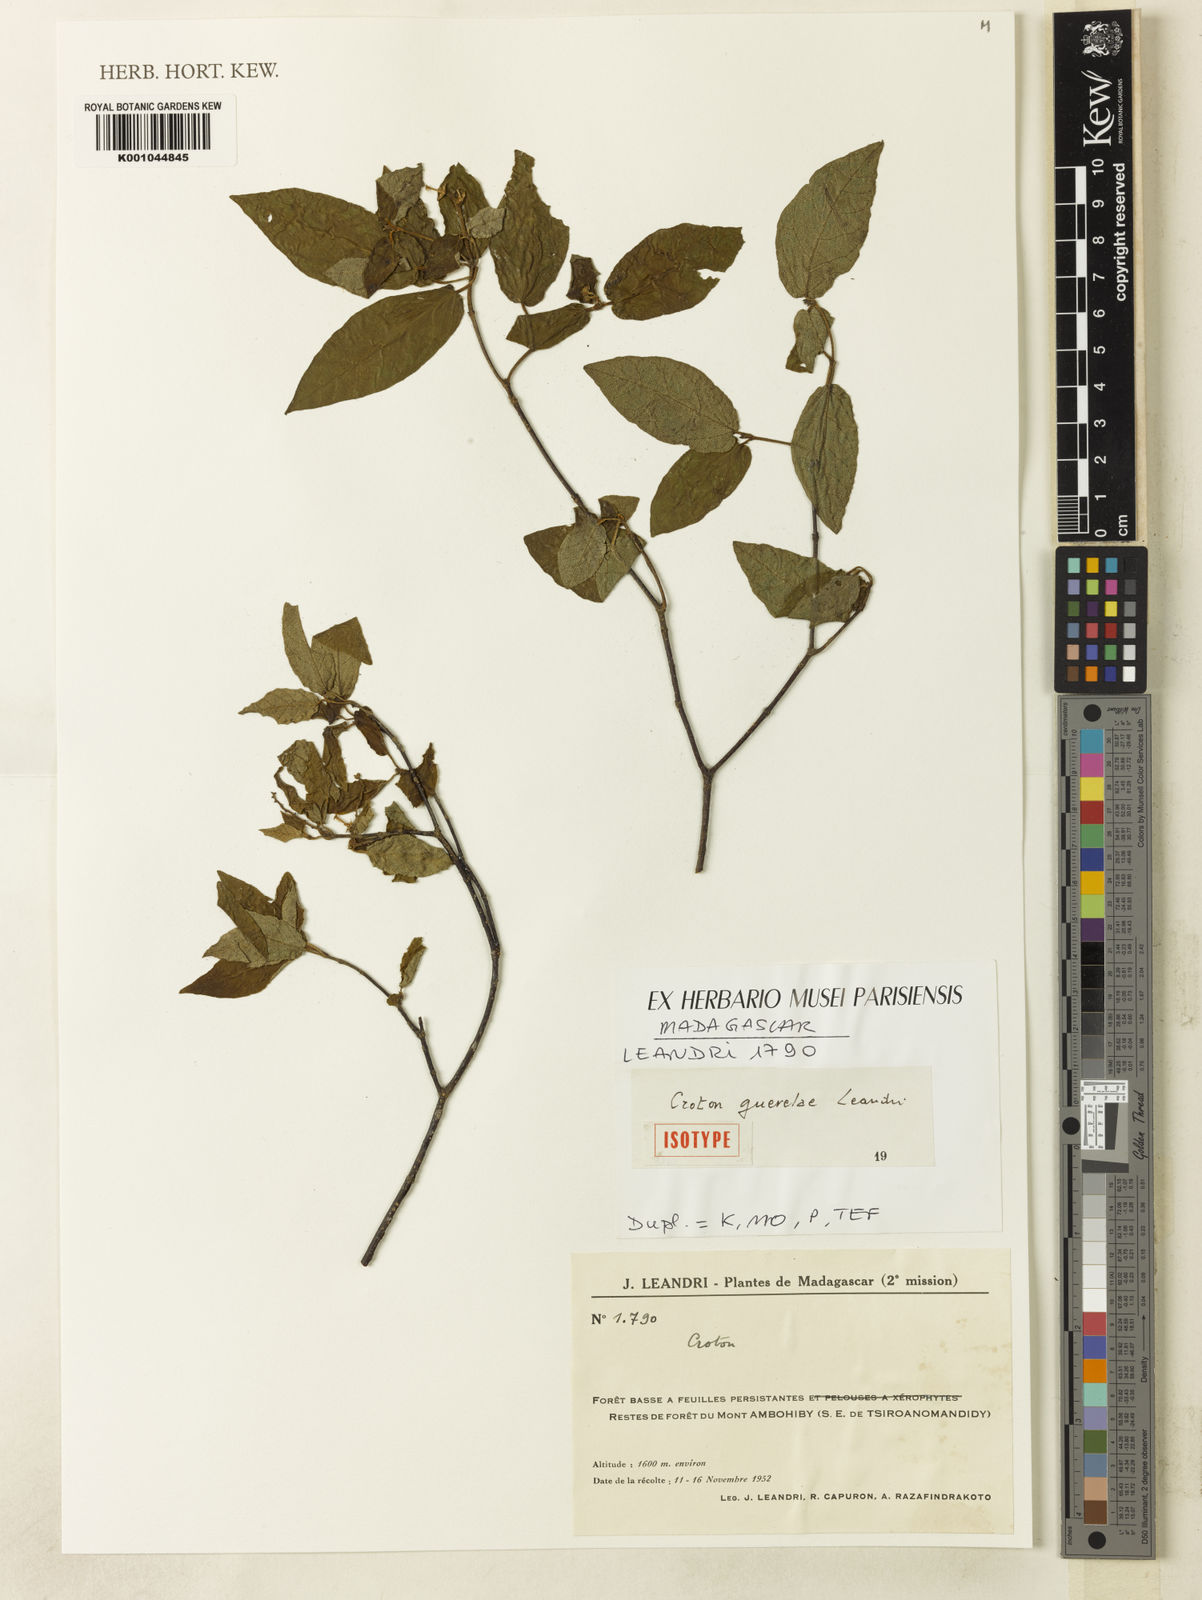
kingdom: Plantae
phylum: Tracheophyta
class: Magnoliopsida
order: Malpighiales
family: Euphorbiaceae
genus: Croton
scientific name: Croton guerelae
